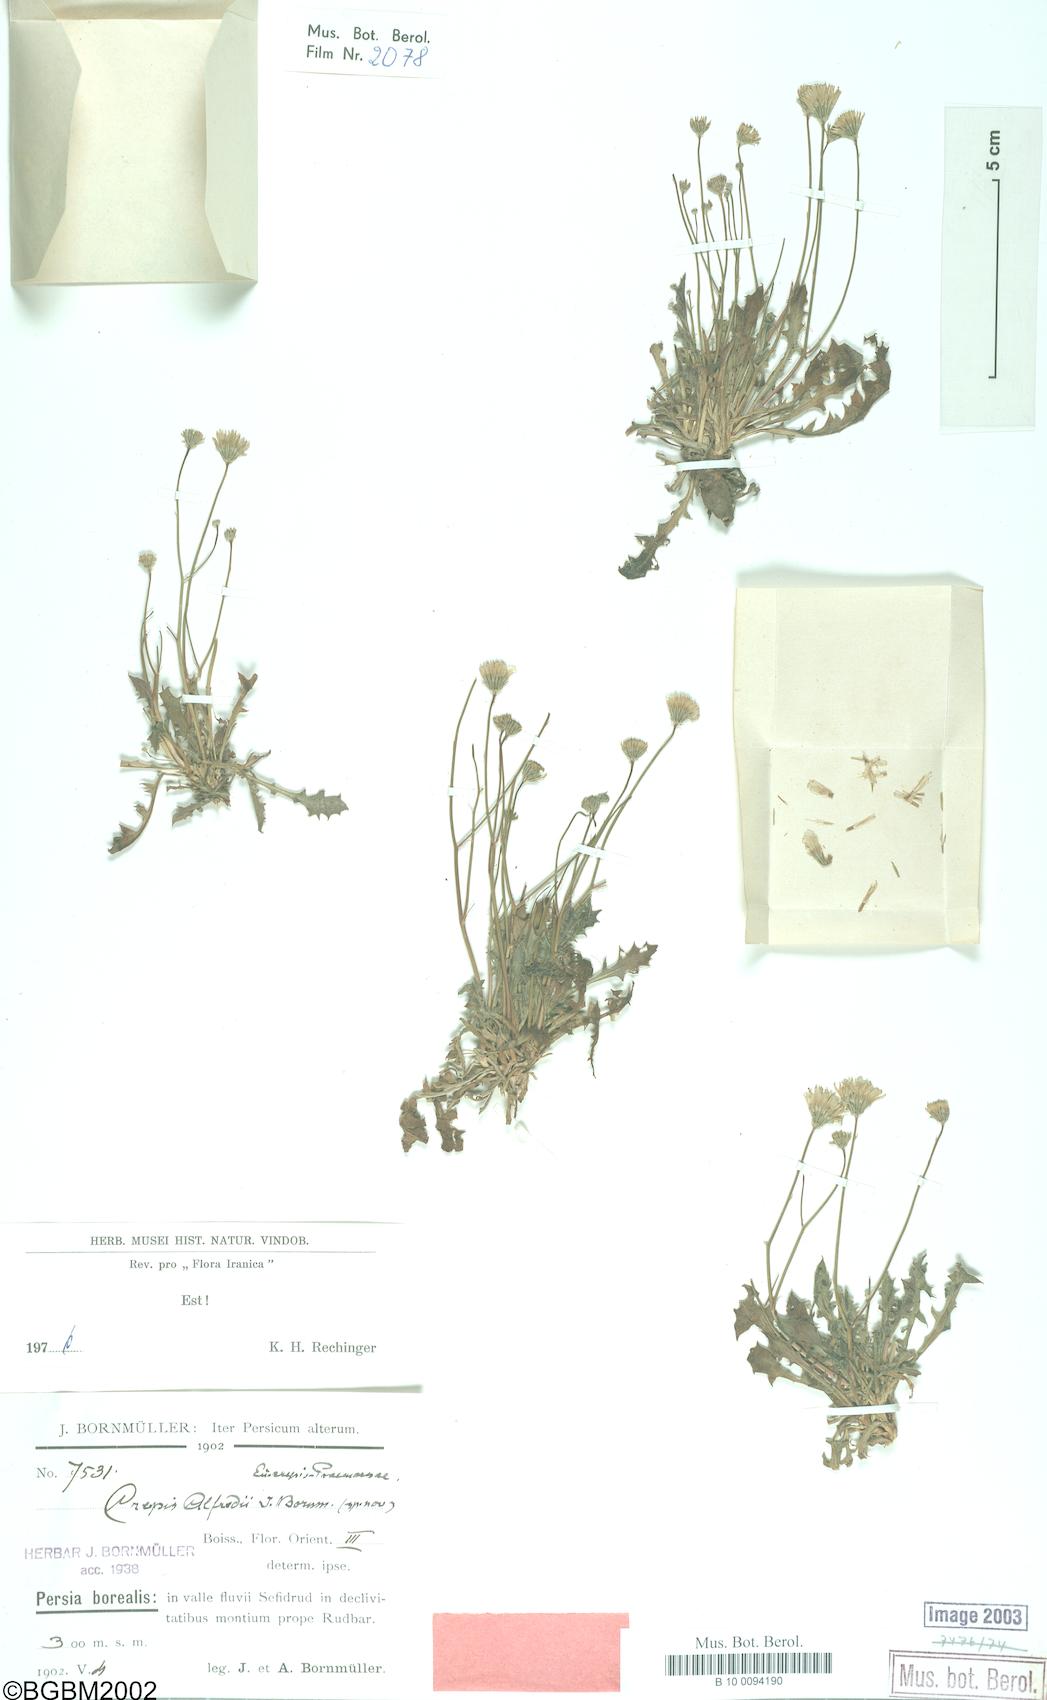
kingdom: Plantae
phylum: Tracheophyta
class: Magnoliopsida
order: Asterales
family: Asteraceae
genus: Crepis
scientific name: Crepis alfredii
